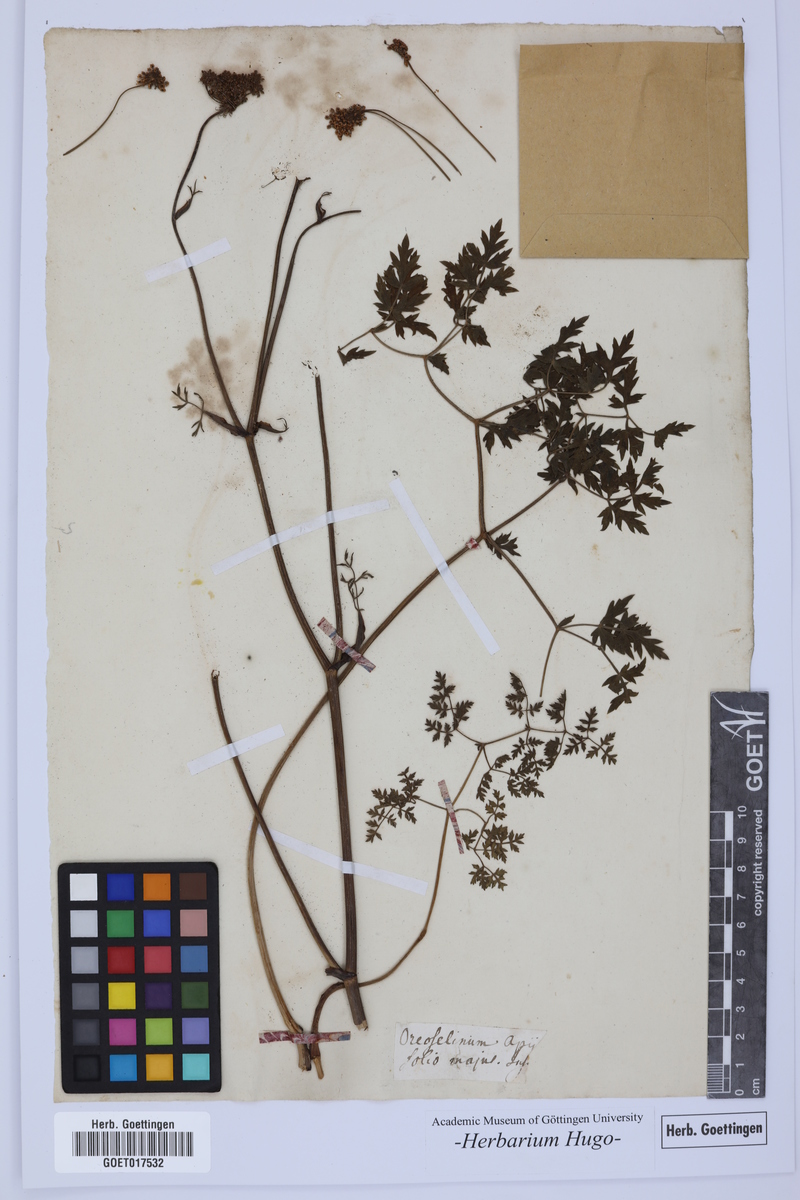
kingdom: Plantae
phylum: Tracheophyta
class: Magnoliopsida
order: Apiales
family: Apiaceae
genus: Oreoselinum
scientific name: Oreoselinum
